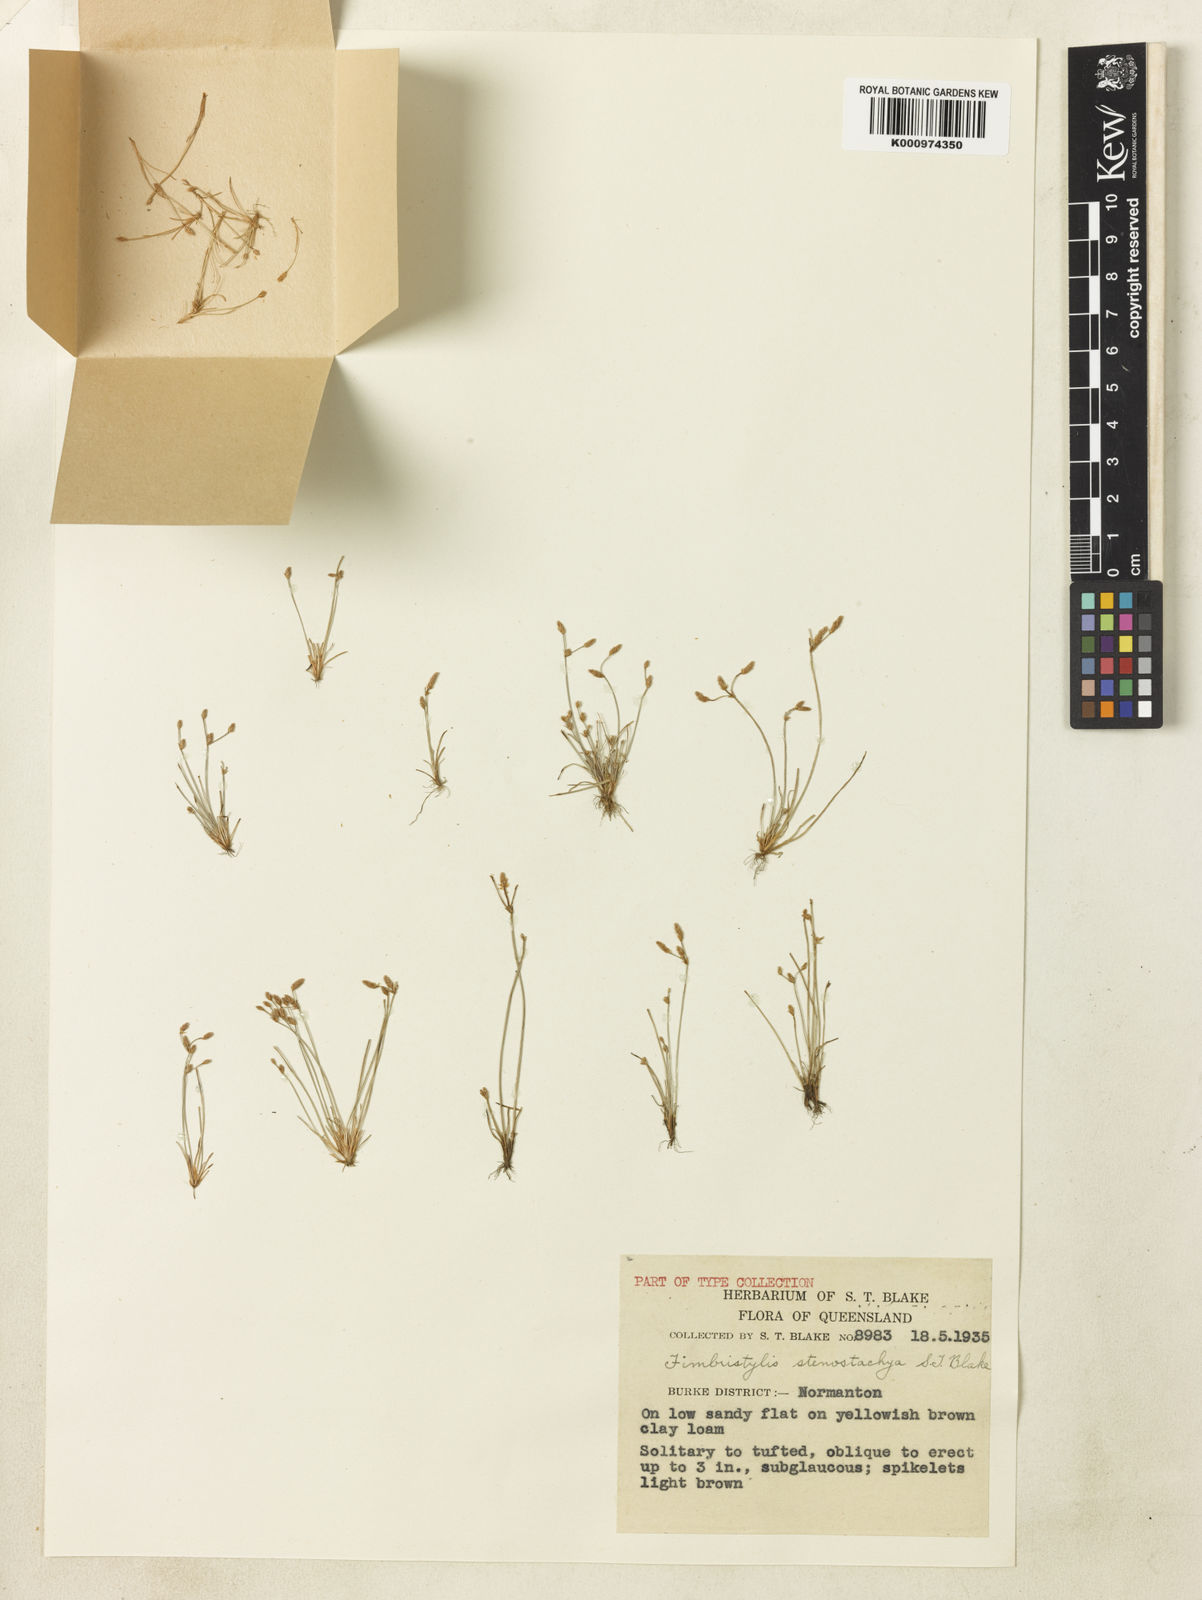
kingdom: Plantae
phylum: Tracheophyta
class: Liliopsida
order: Poales
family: Cyperaceae
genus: Fimbristylis
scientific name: Fimbristylis stenostachya
